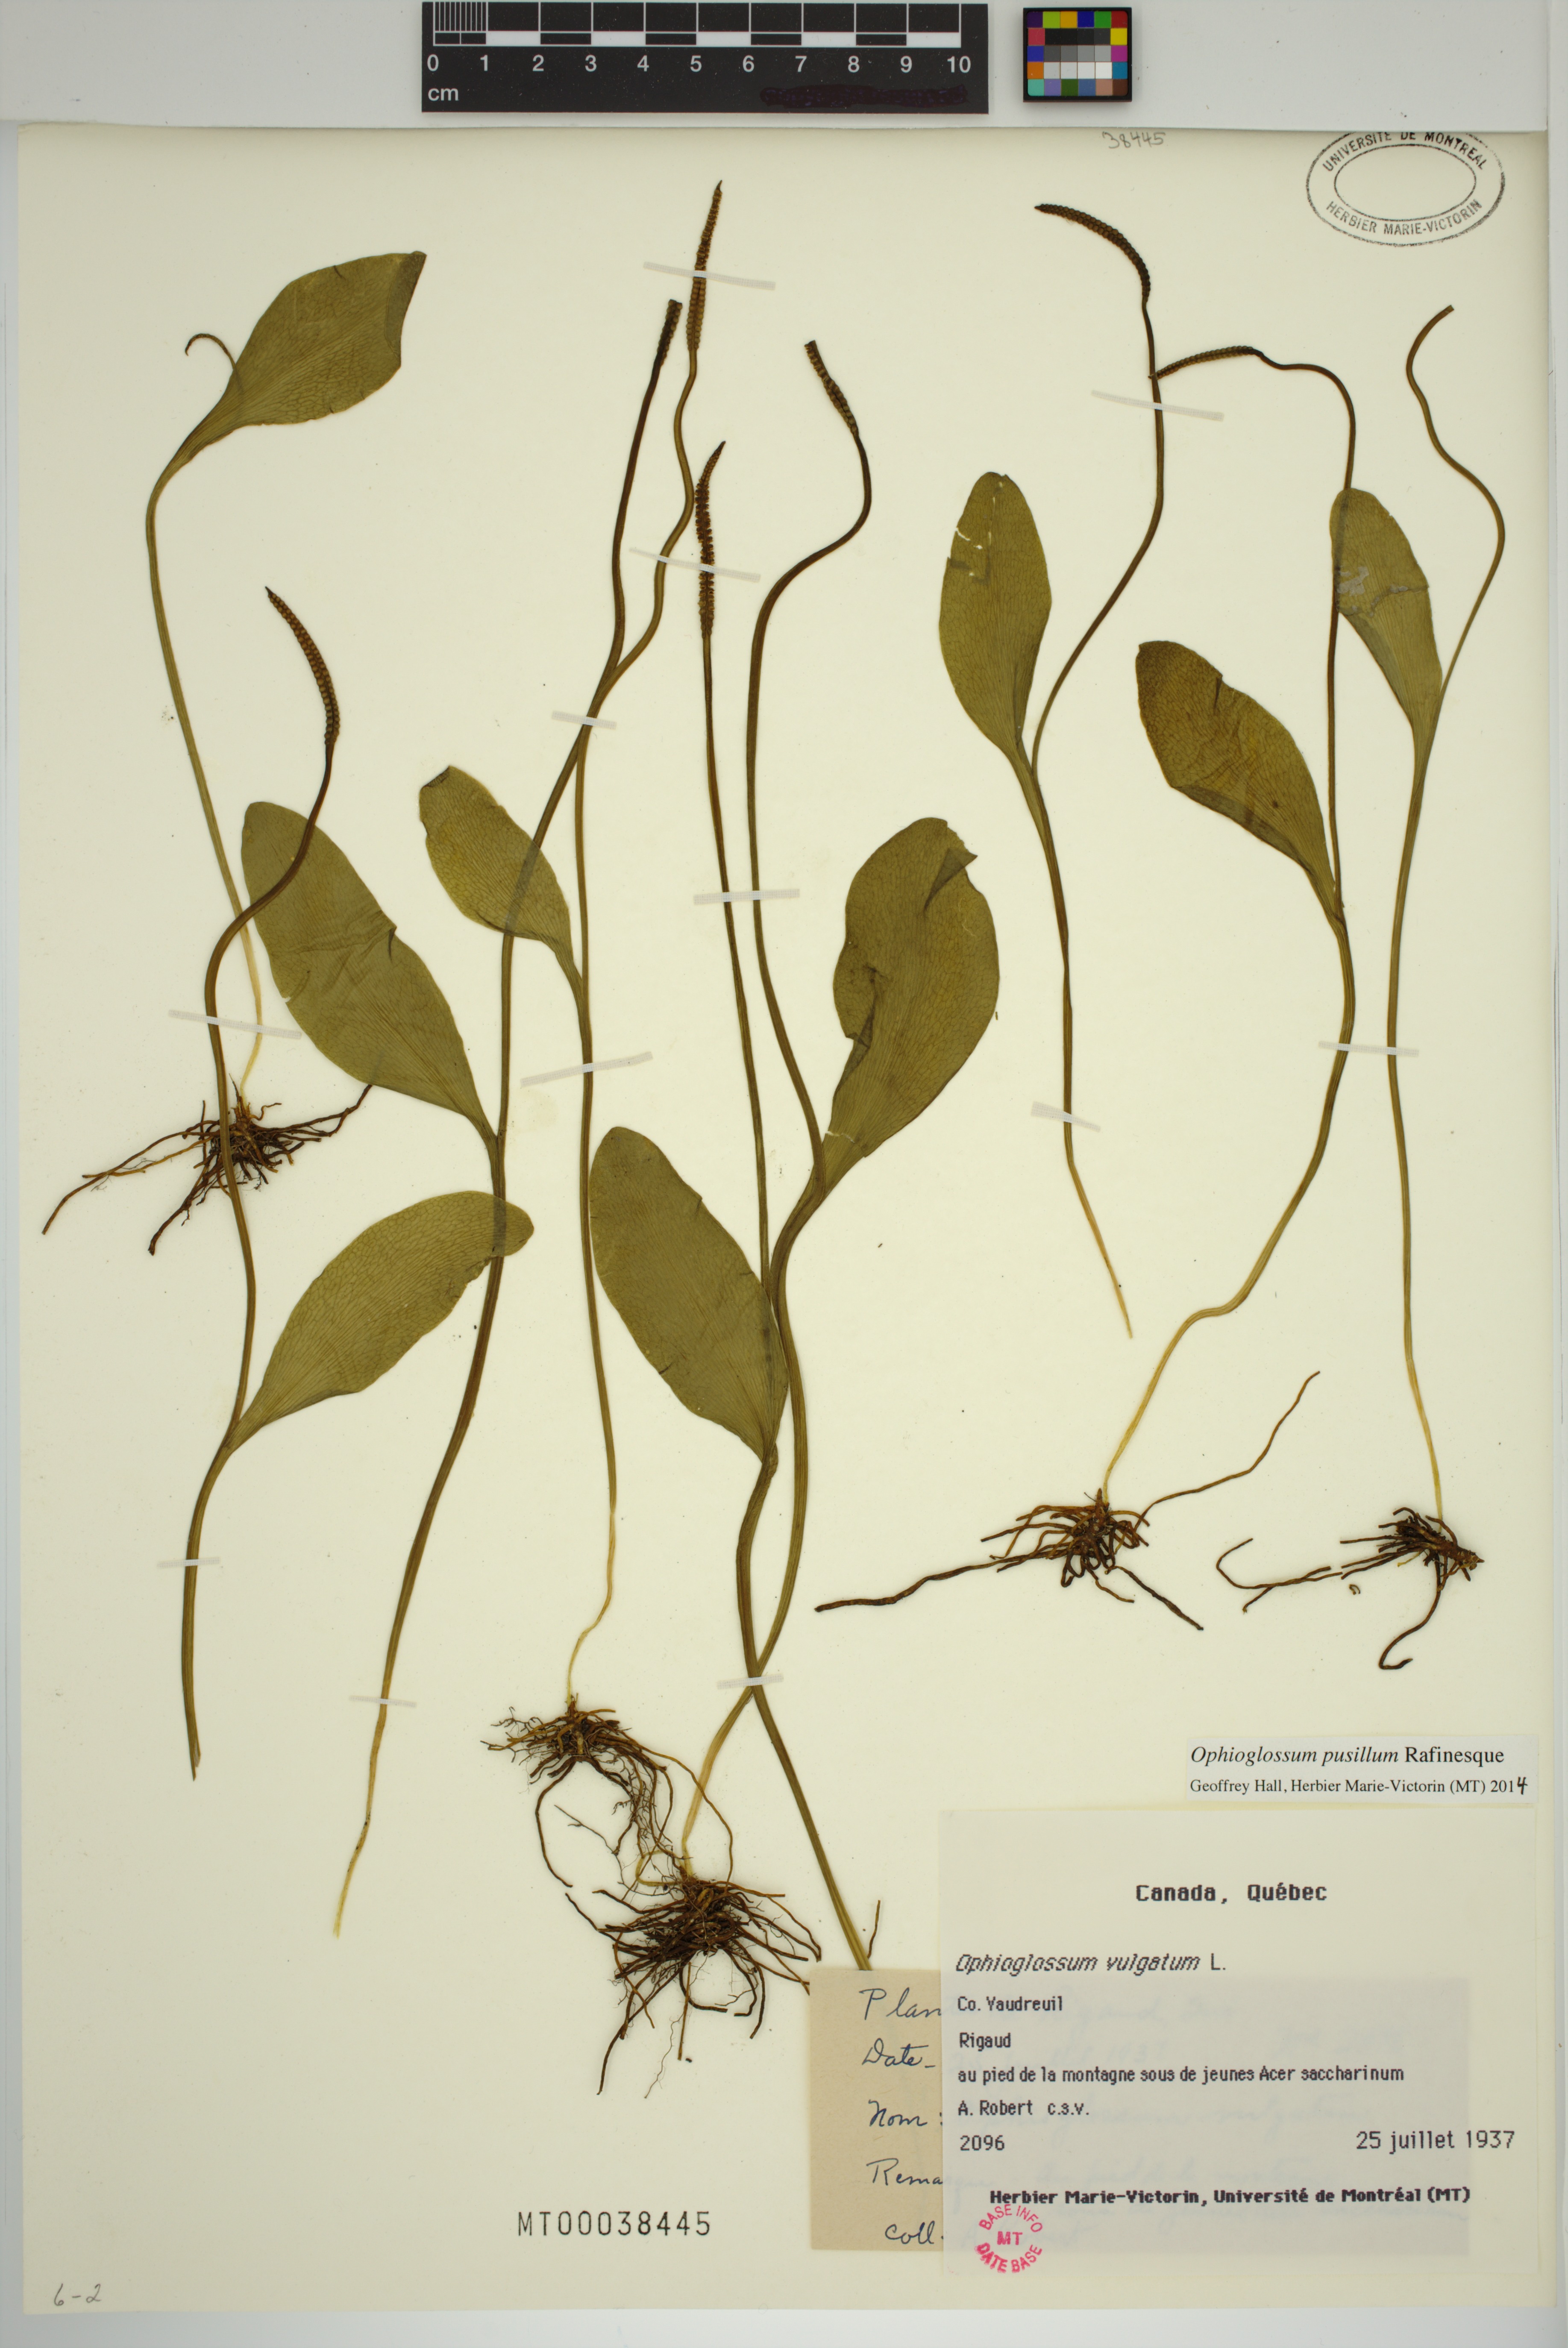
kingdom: Plantae
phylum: Tracheophyta
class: Polypodiopsida
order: Ophioglossales
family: Ophioglossaceae
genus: Ophioglossum
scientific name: Ophioglossum pusillum
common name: Northern adder's-tongue
